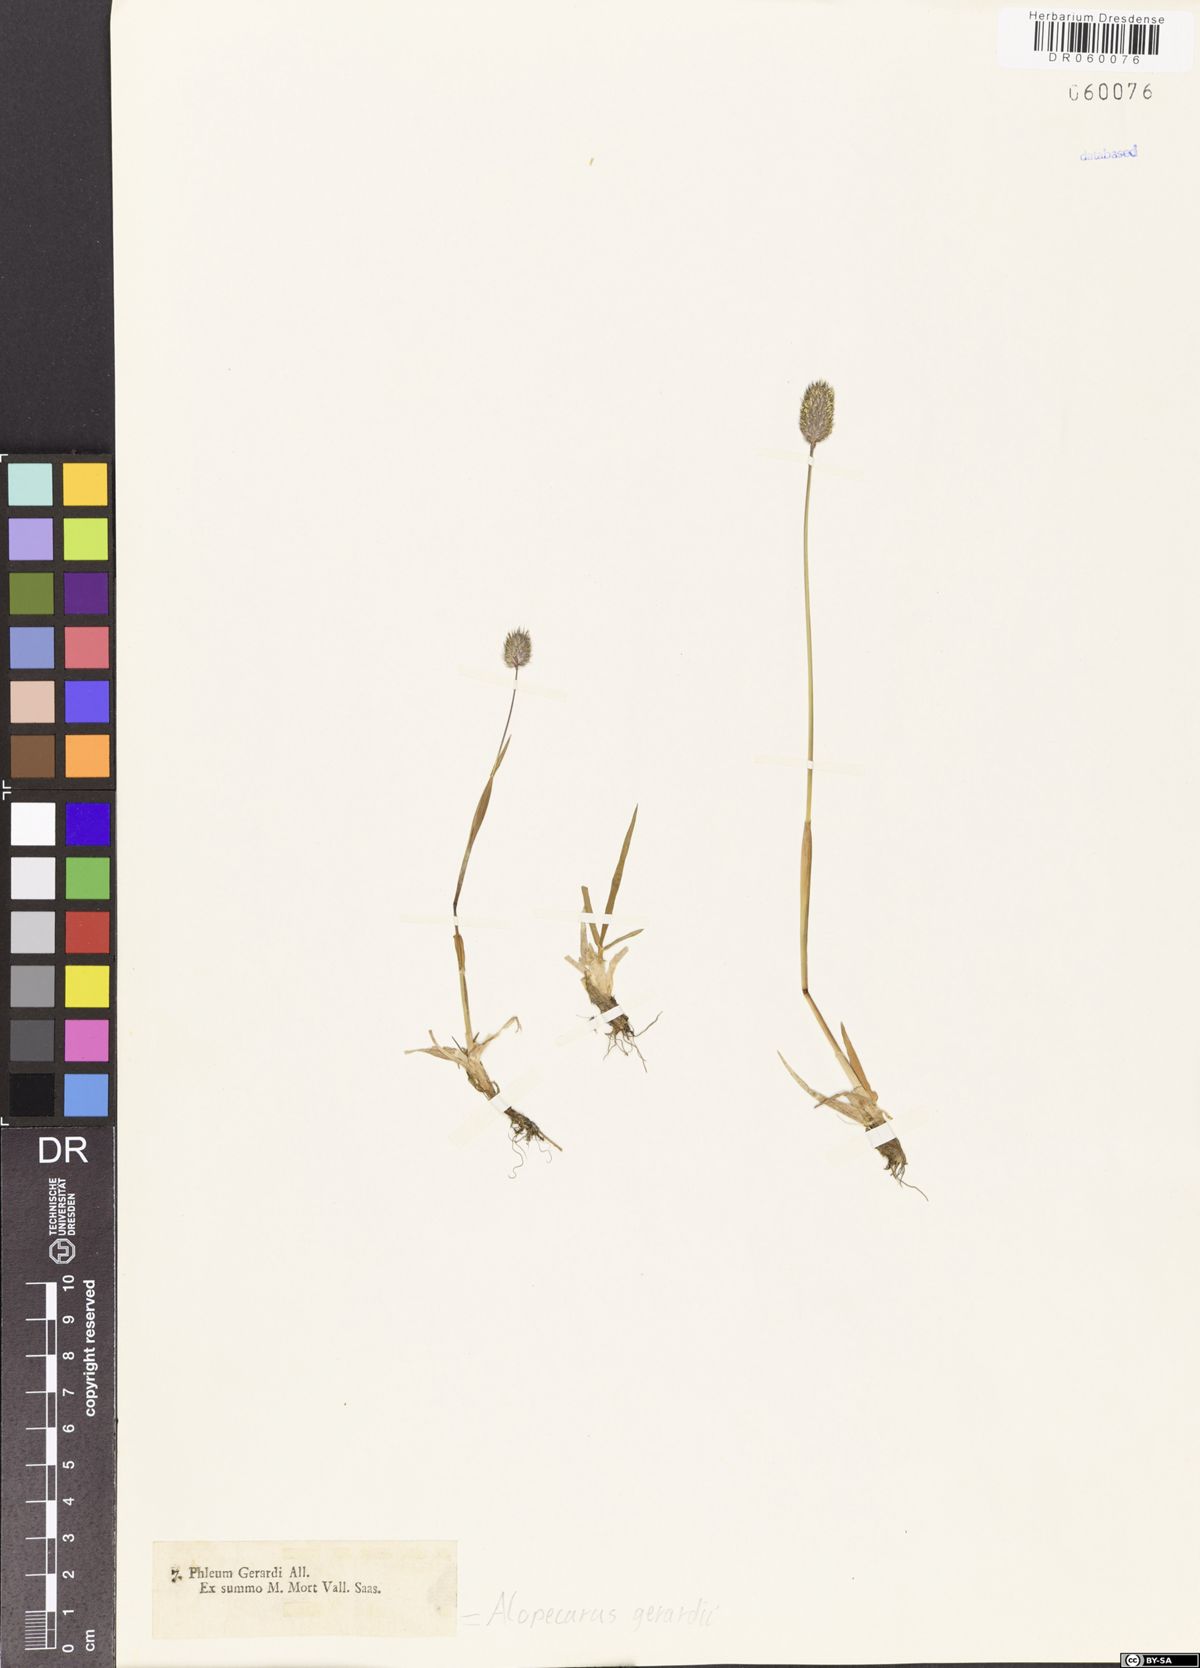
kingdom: Plantae
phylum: Tracheophyta
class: Liliopsida
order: Poales
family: Poaceae
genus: Alopecurus
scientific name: Alopecurus gerardii
